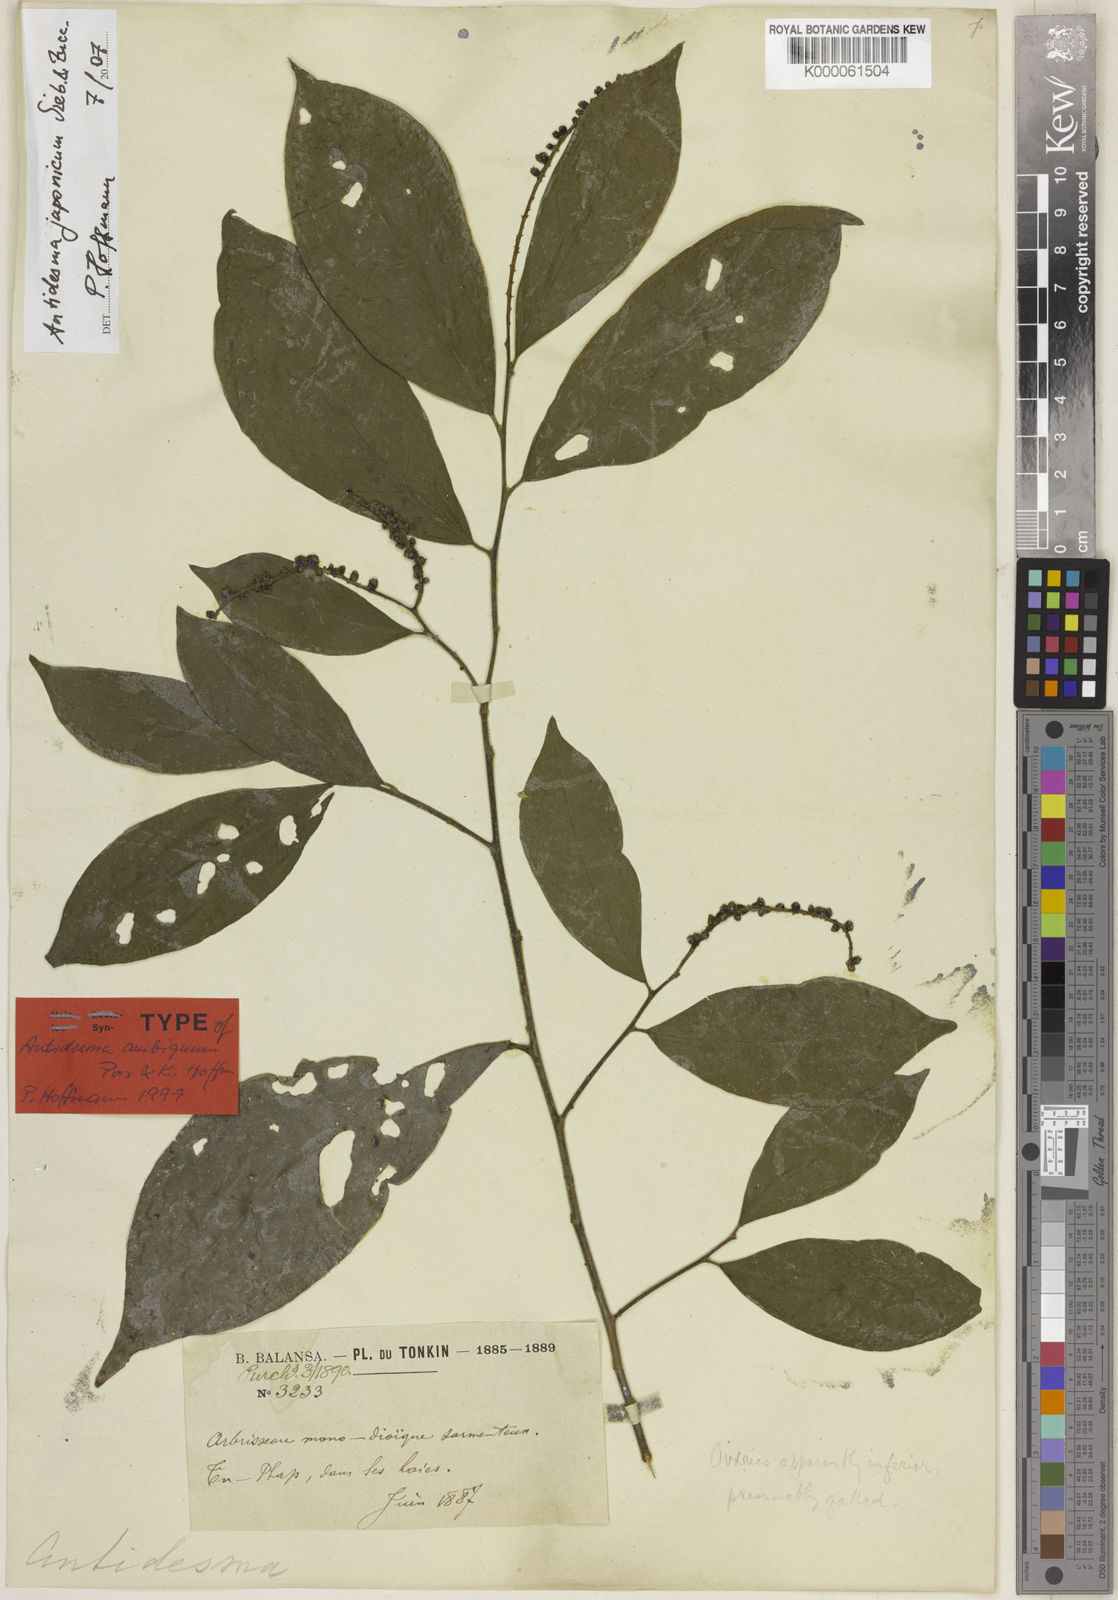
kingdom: Plantae
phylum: Tracheophyta
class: Magnoliopsida
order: Malpighiales
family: Phyllanthaceae
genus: Antidesma
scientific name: Antidesma japonicum
